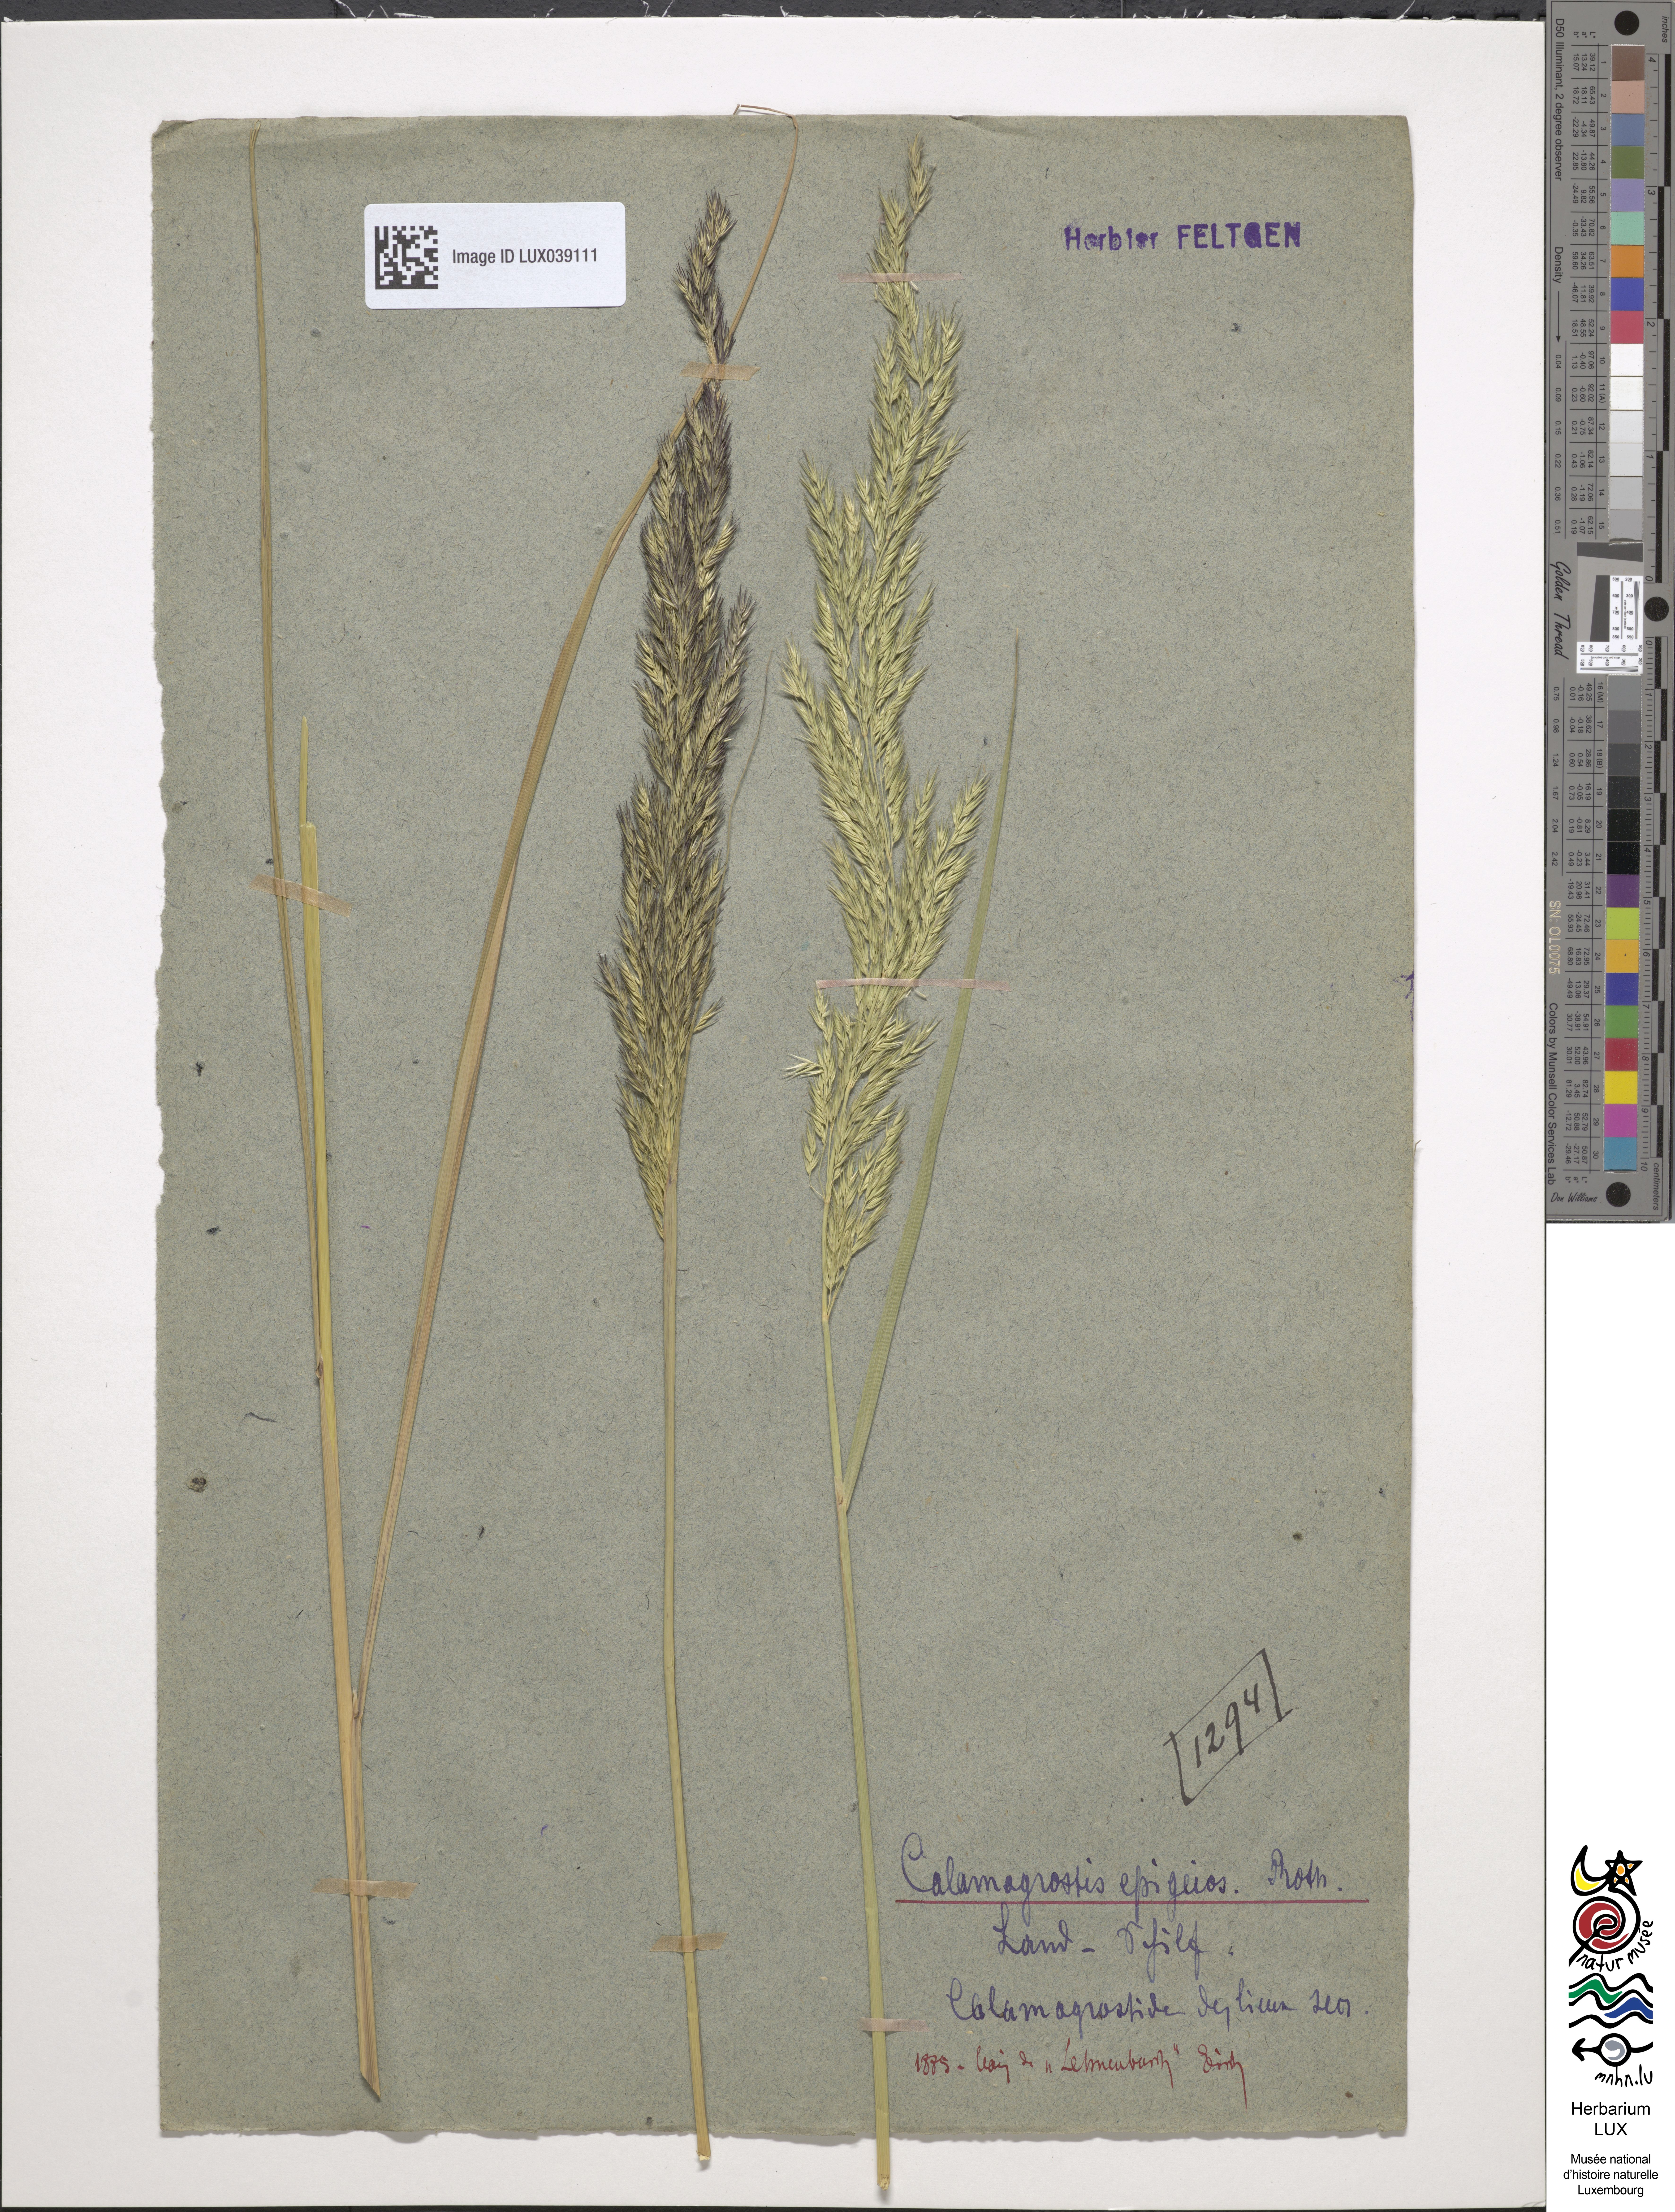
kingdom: Plantae
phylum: Tracheophyta
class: Liliopsida
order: Poales
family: Poaceae
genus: Calamagrostis
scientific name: Calamagrostis epigejos
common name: Wood small-reed
